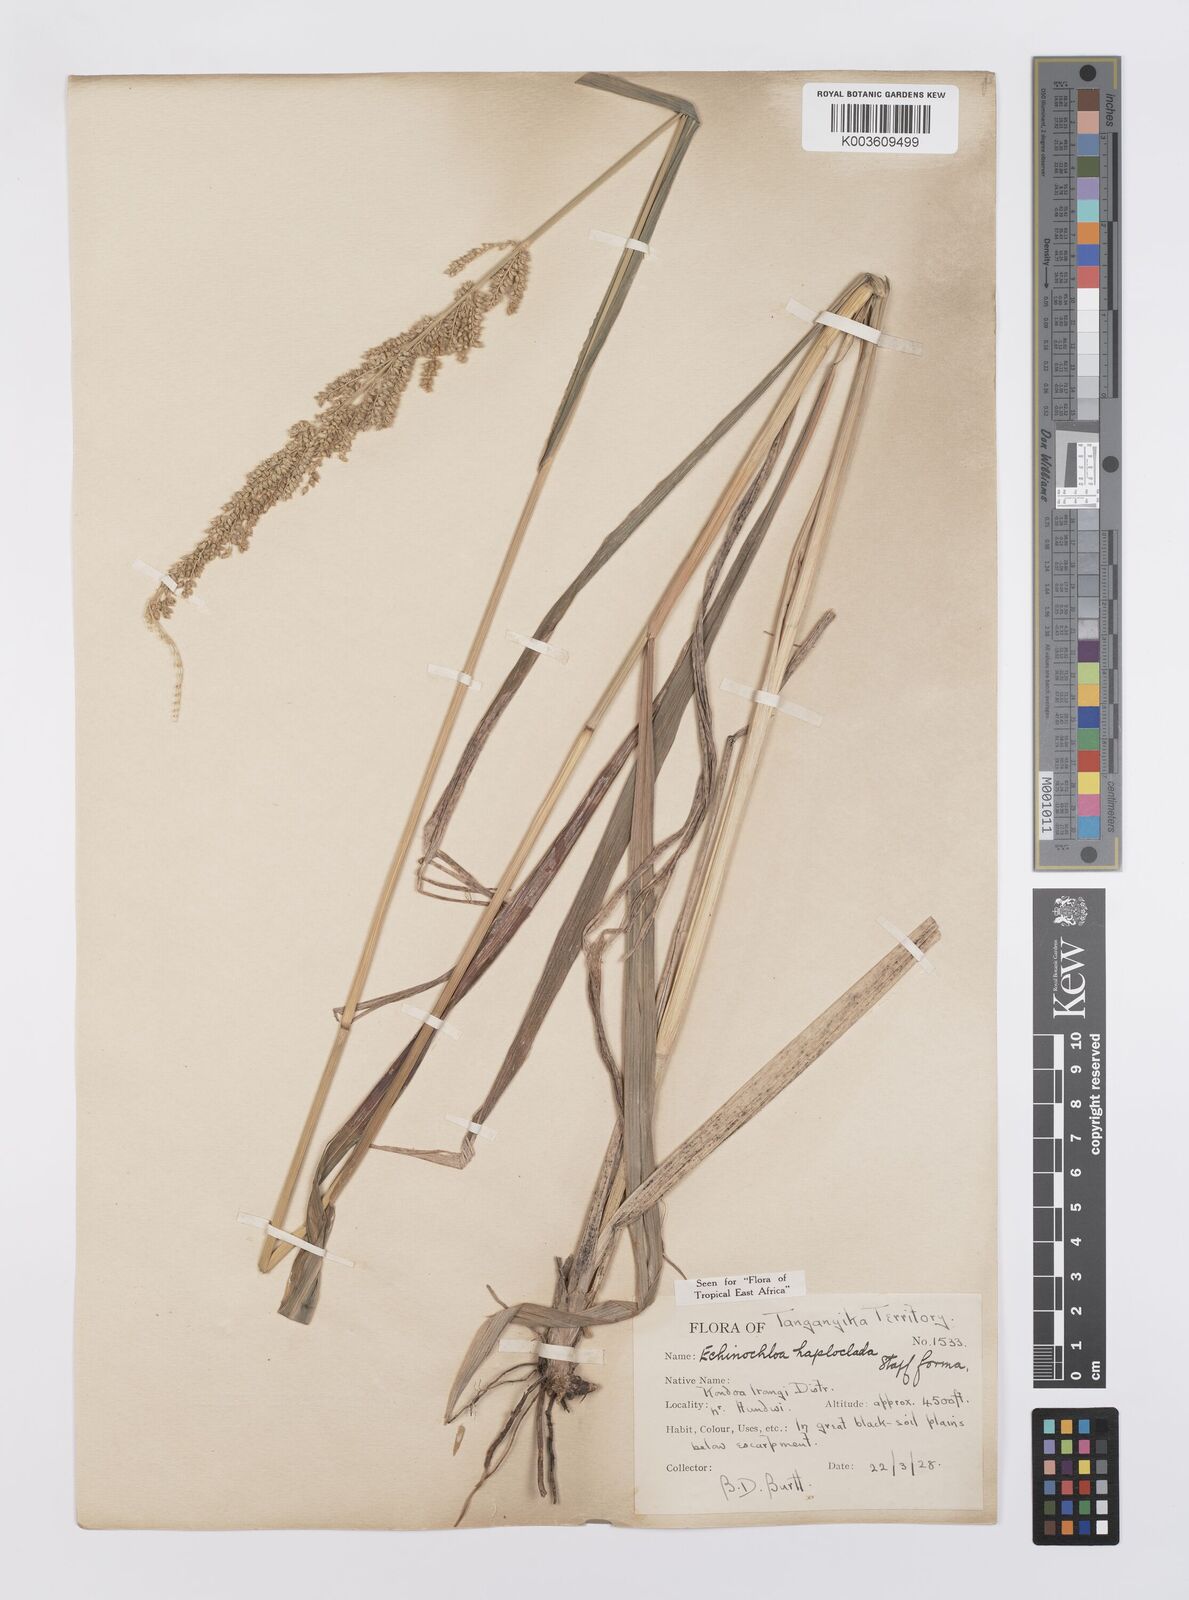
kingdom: Plantae
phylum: Tracheophyta
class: Liliopsida
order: Poales
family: Poaceae
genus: Echinochloa
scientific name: Echinochloa haploclada
